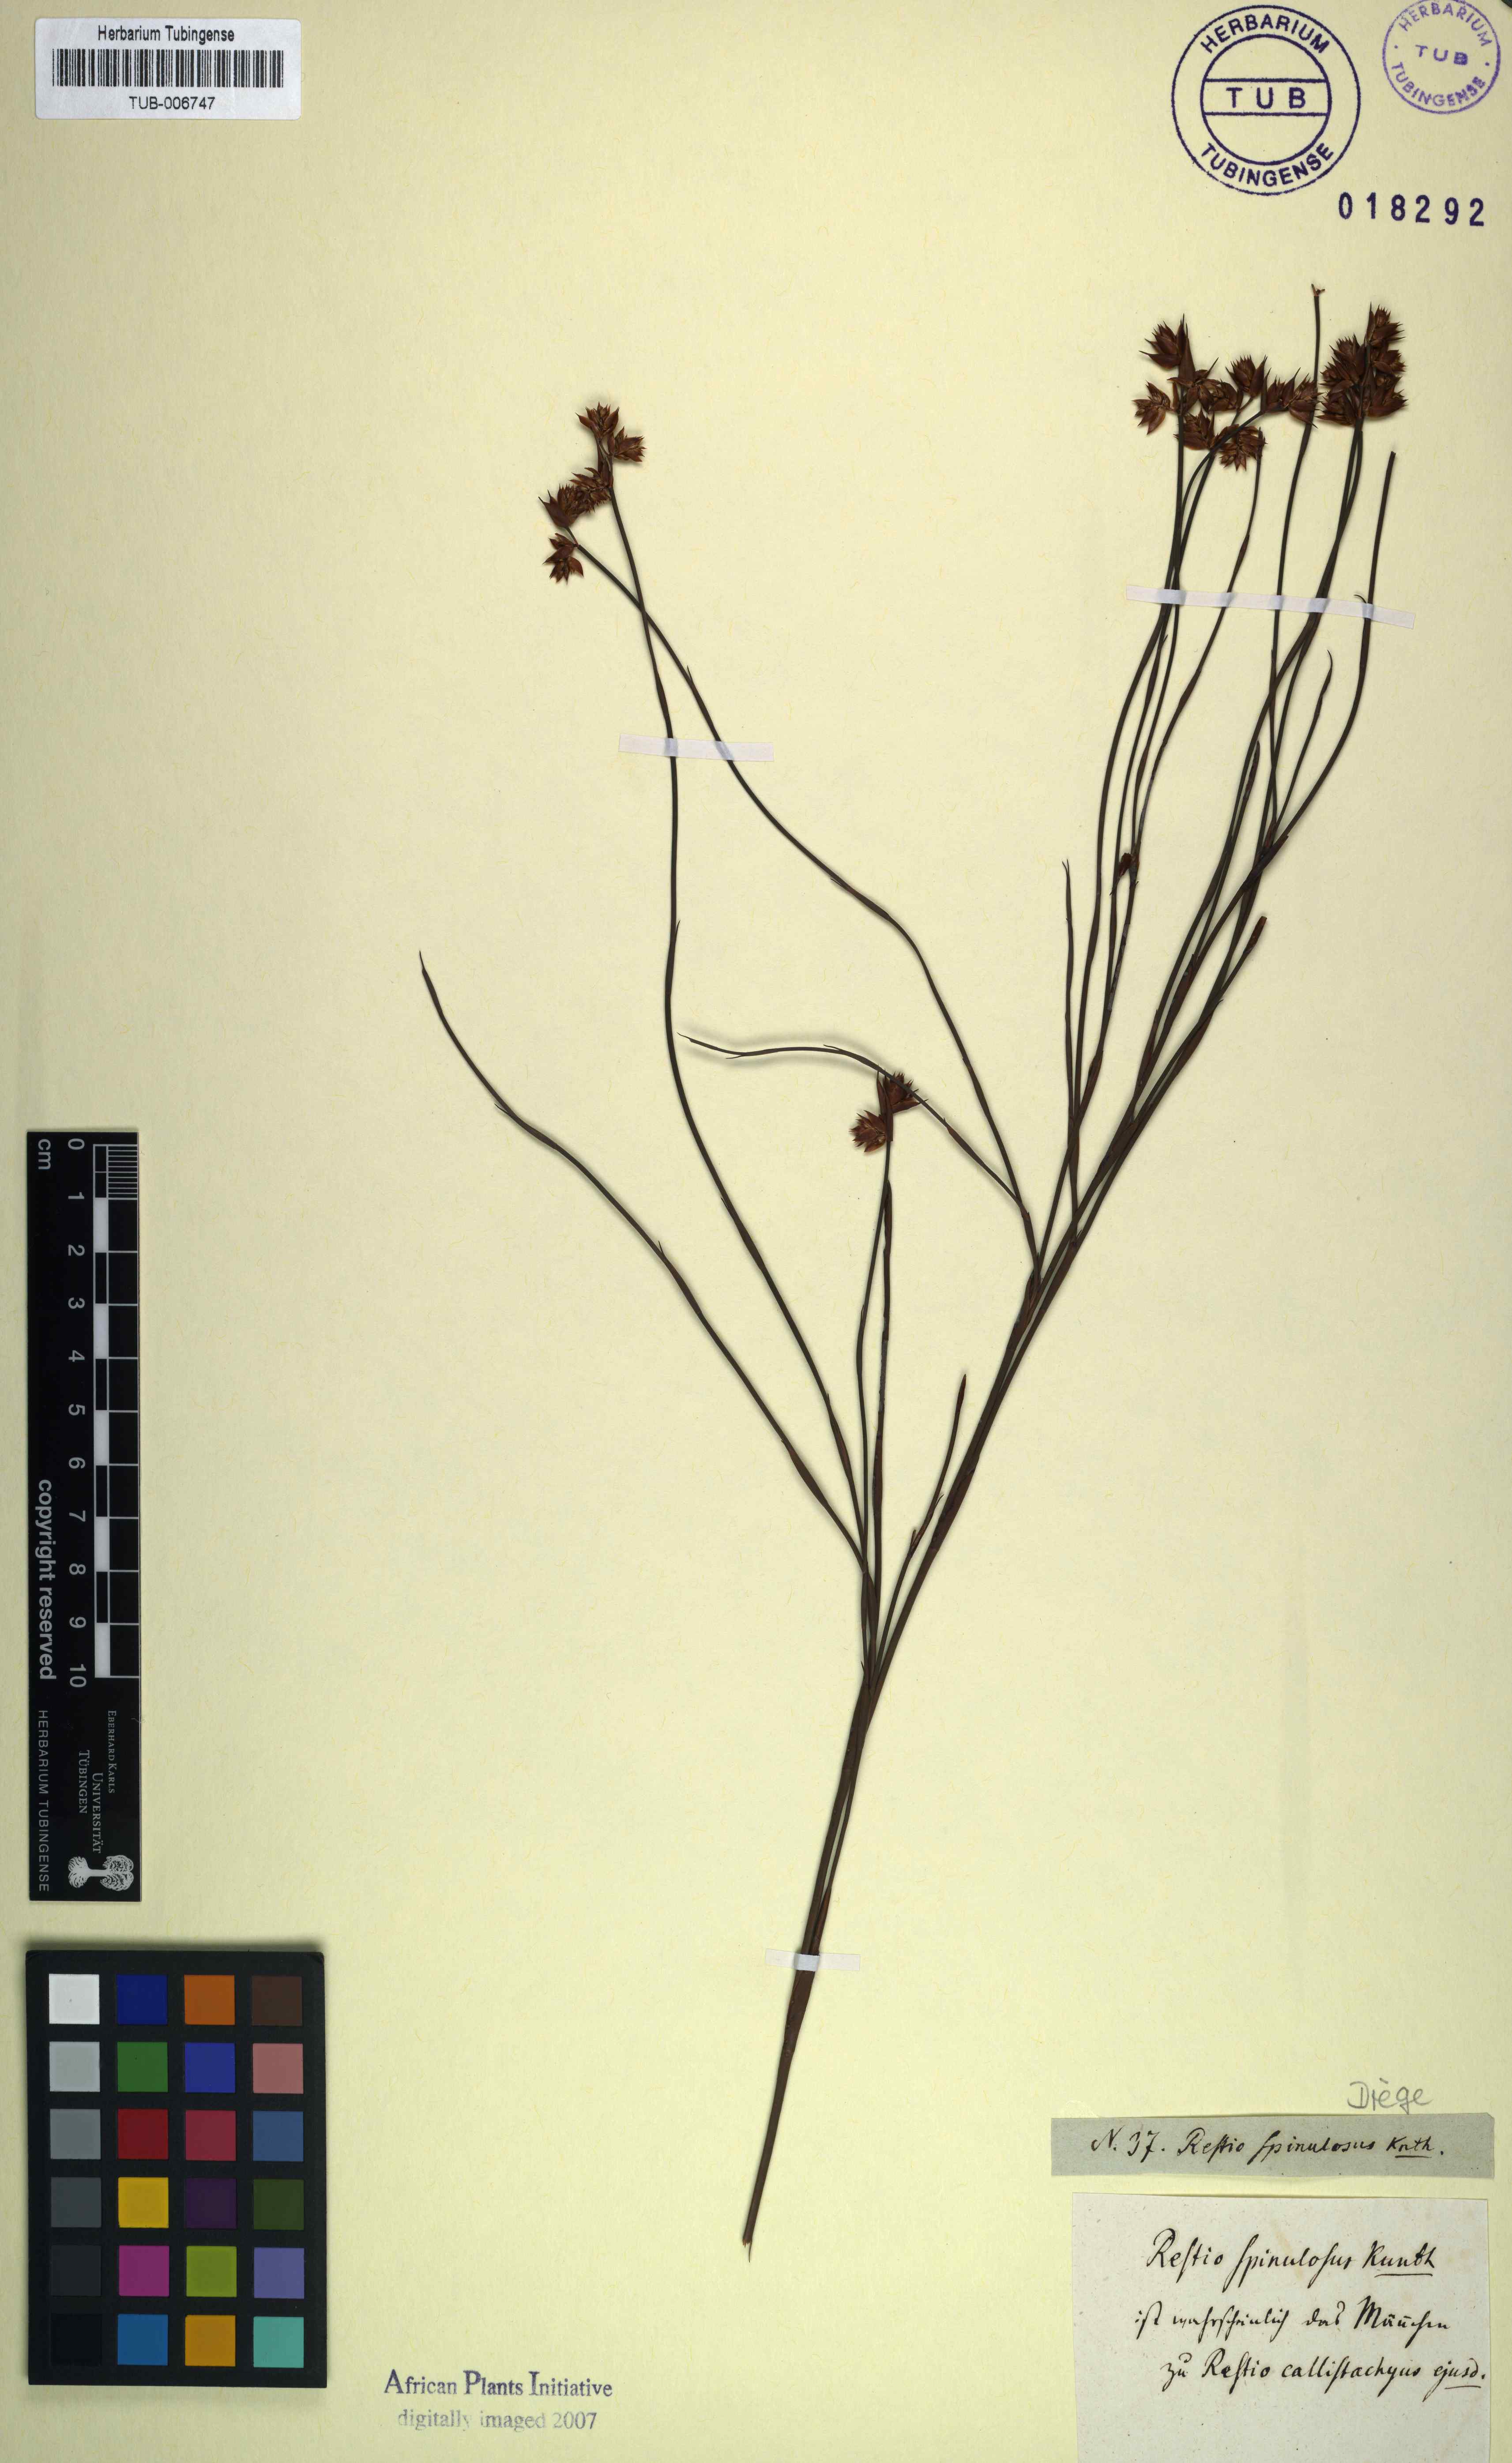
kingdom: Plantae
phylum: Tracheophyta
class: Liliopsida
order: Poales
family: Restionaceae
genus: Platycaulos
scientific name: Platycaulos callistachyus
